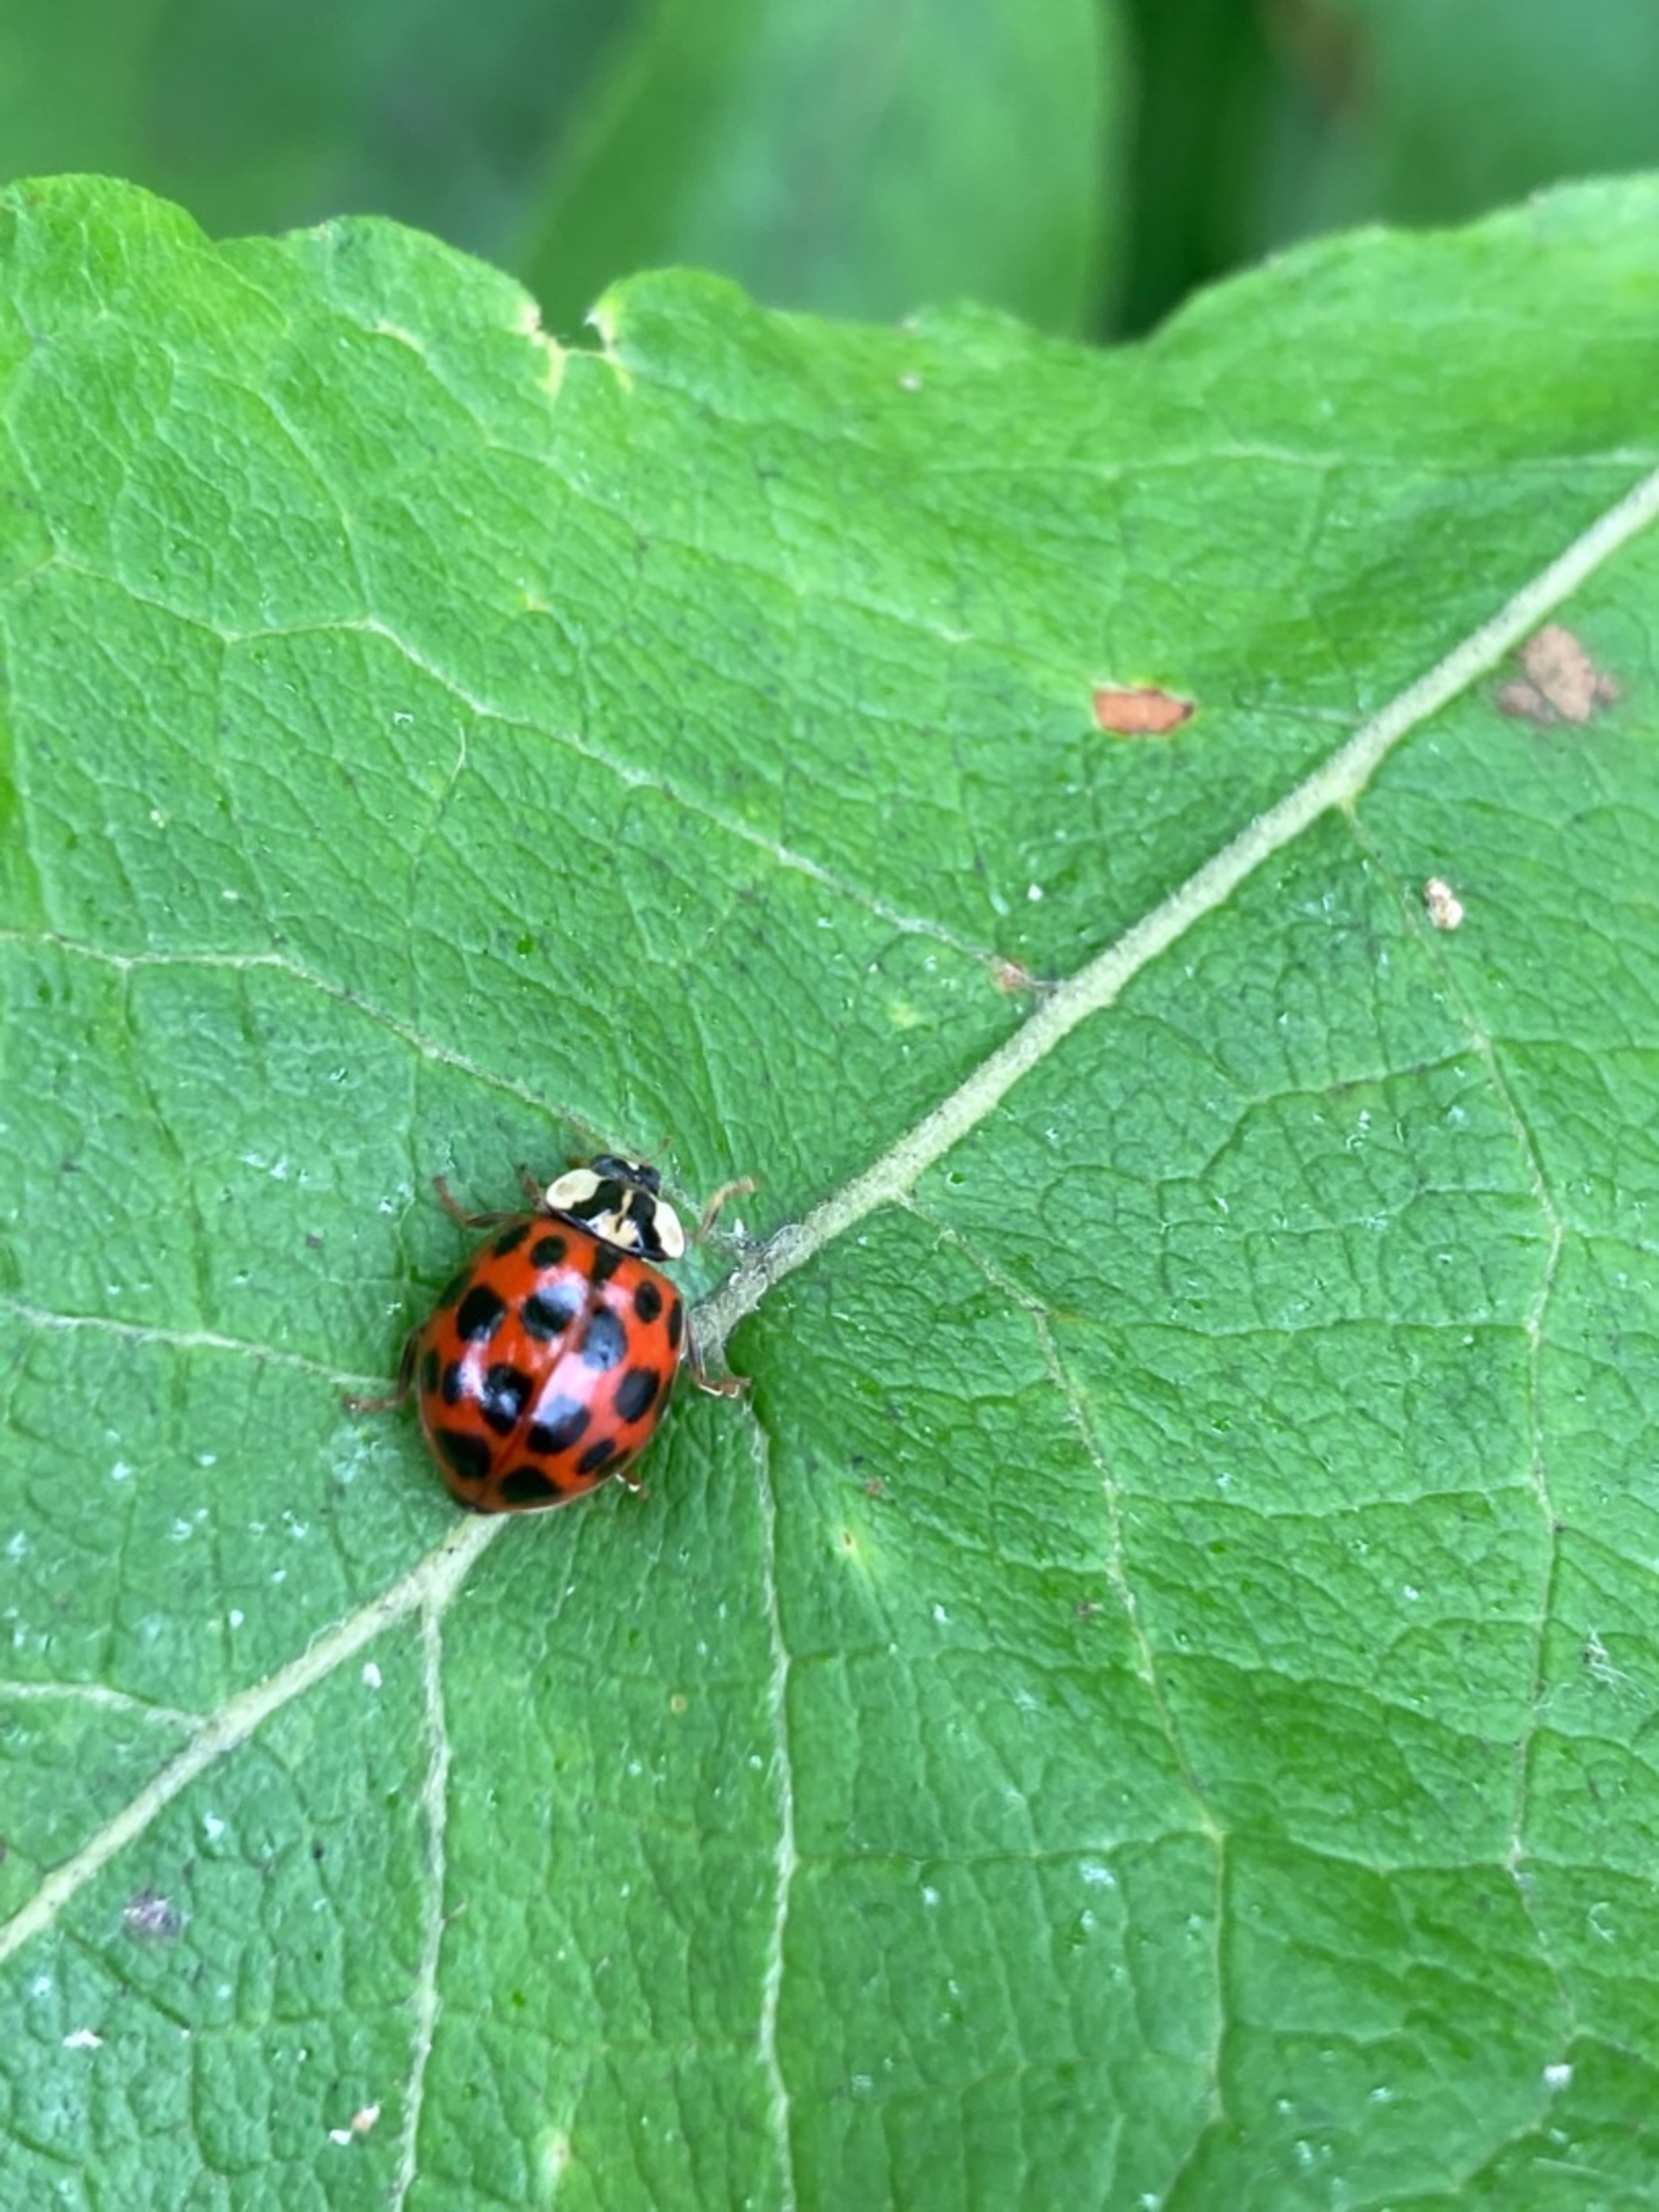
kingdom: Animalia
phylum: Arthropoda
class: Insecta
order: Coleoptera
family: Coccinellidae
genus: Harmonia
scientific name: Harmonia axyridis
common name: Harlekinmariehøne
